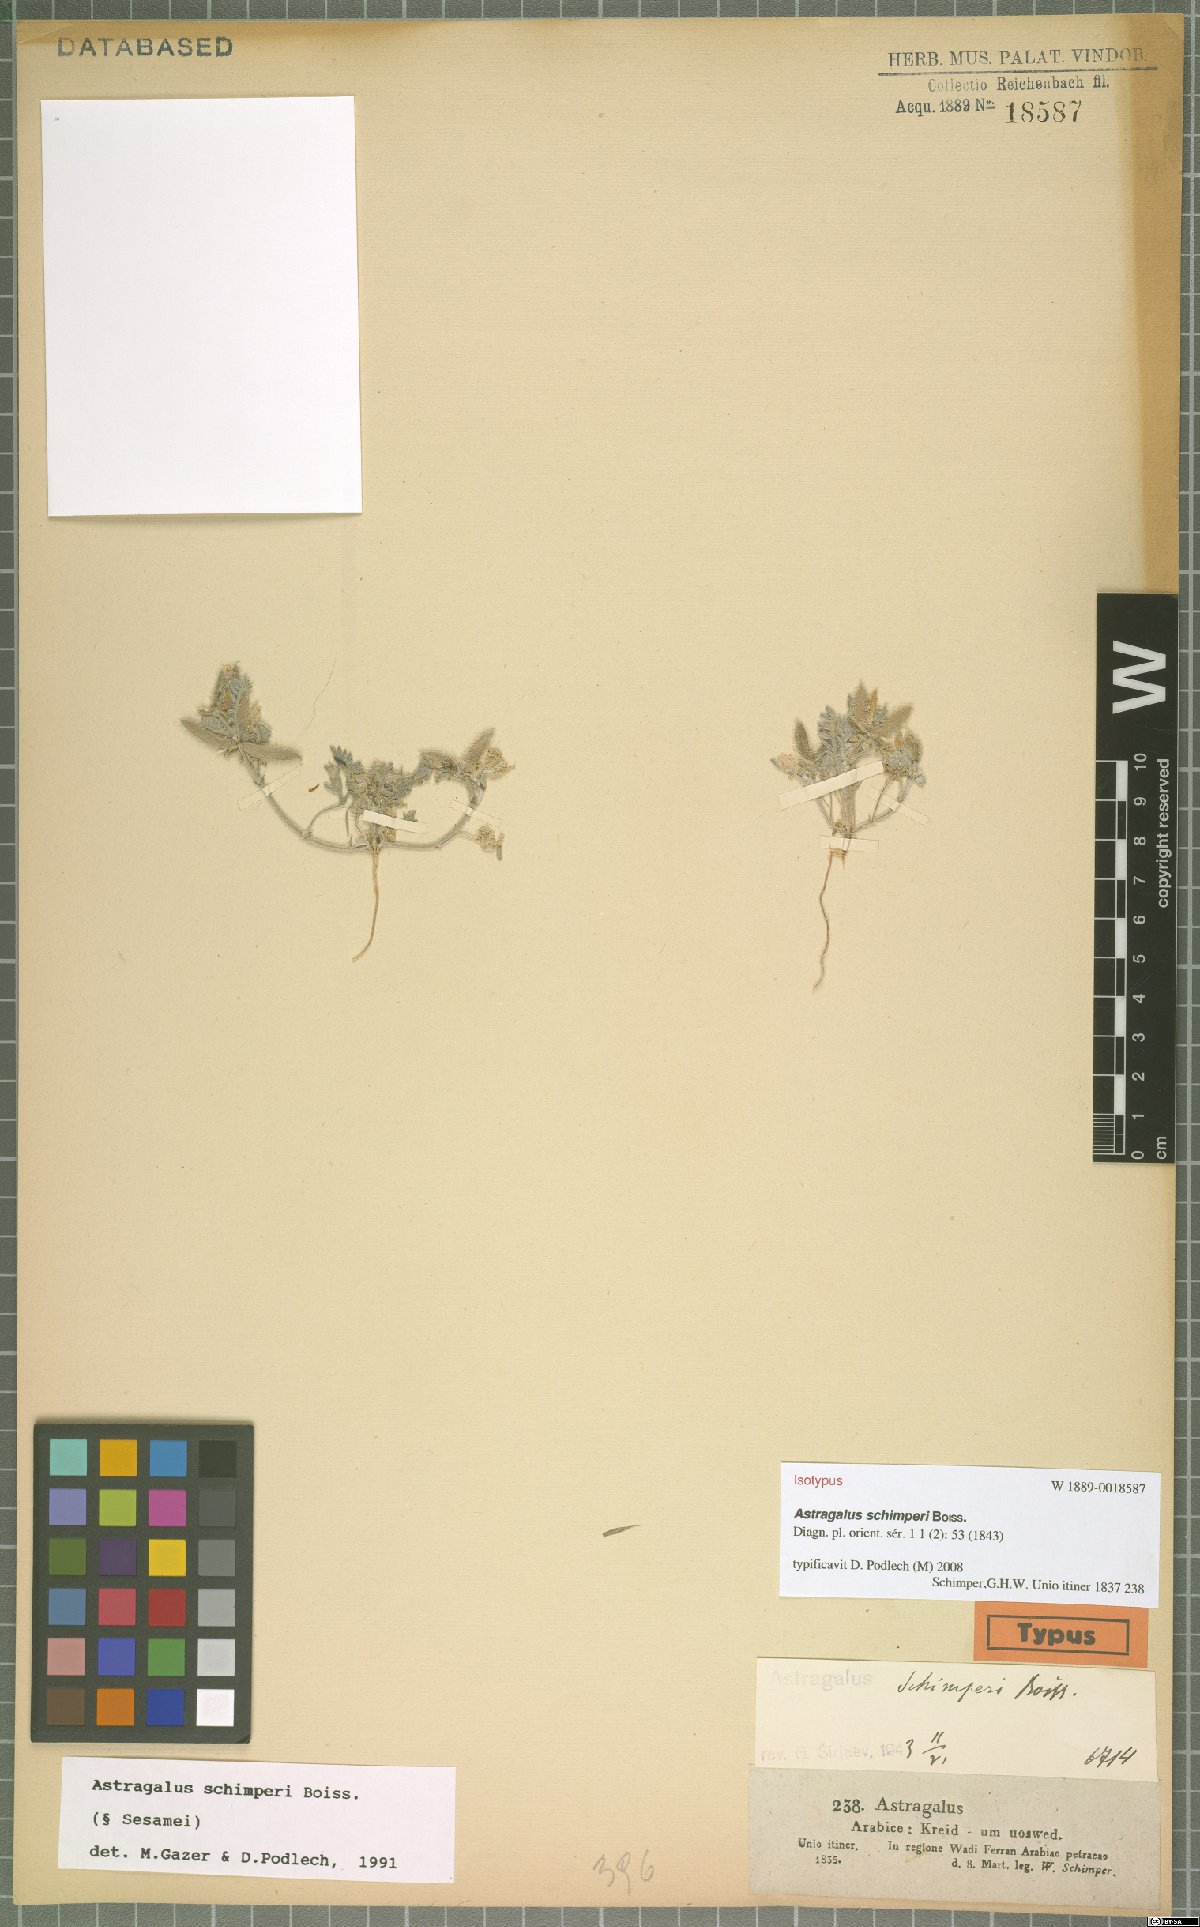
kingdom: Plantae
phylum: Tracheophyta
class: Magnoliopsida
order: Fabales
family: Fabaceae
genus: Astragalus
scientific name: Astragalus schimperi
